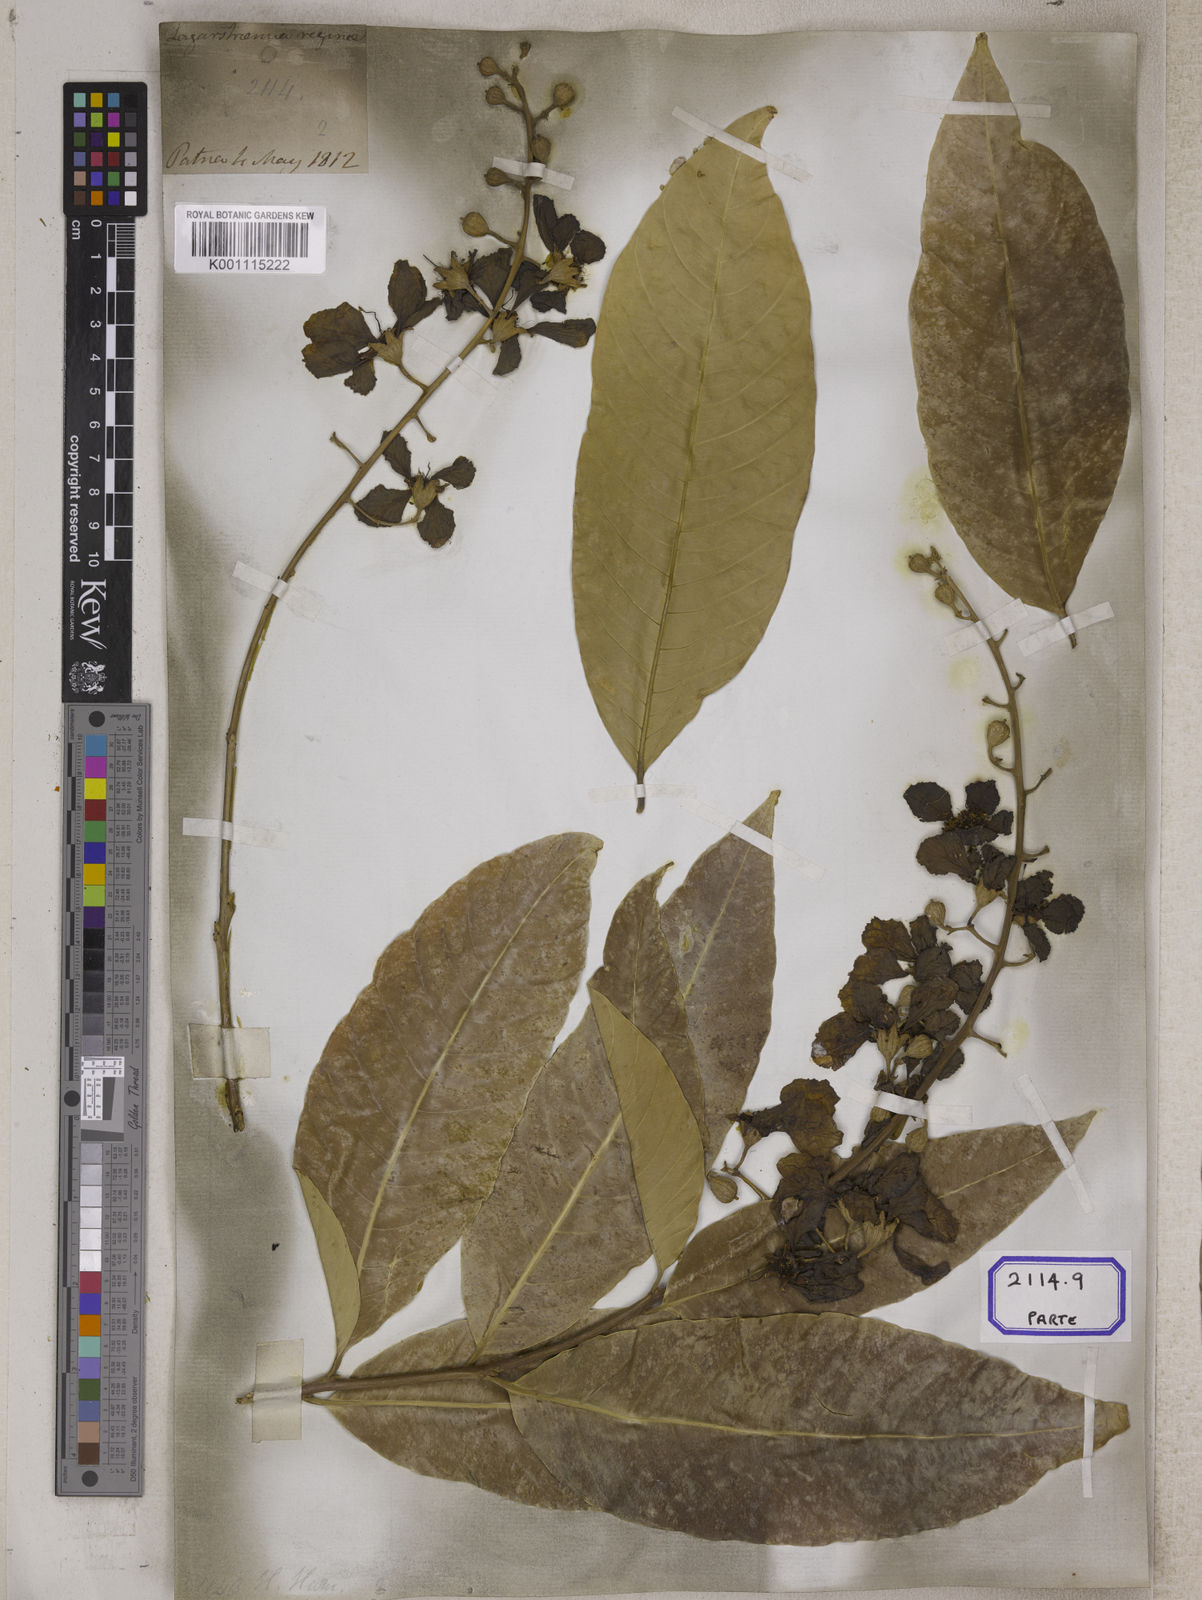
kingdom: Plantae
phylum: Tracheophyta
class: Magnoliopsida
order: Myrtales
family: Lythraceae
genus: Lagerstroemia
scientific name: Lagerstroemia
